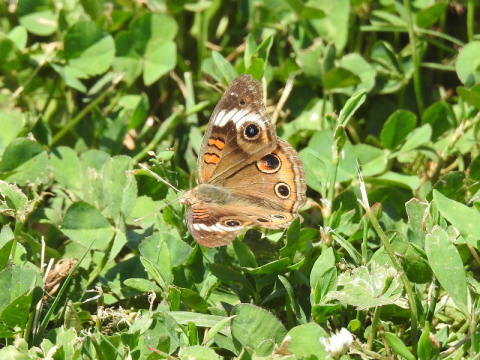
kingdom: Animalia
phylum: Arthropoda
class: Insecta
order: Lepidoptera
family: Nymphalidae
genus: Junonia
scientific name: Junonia coenia
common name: Common Buckeye
